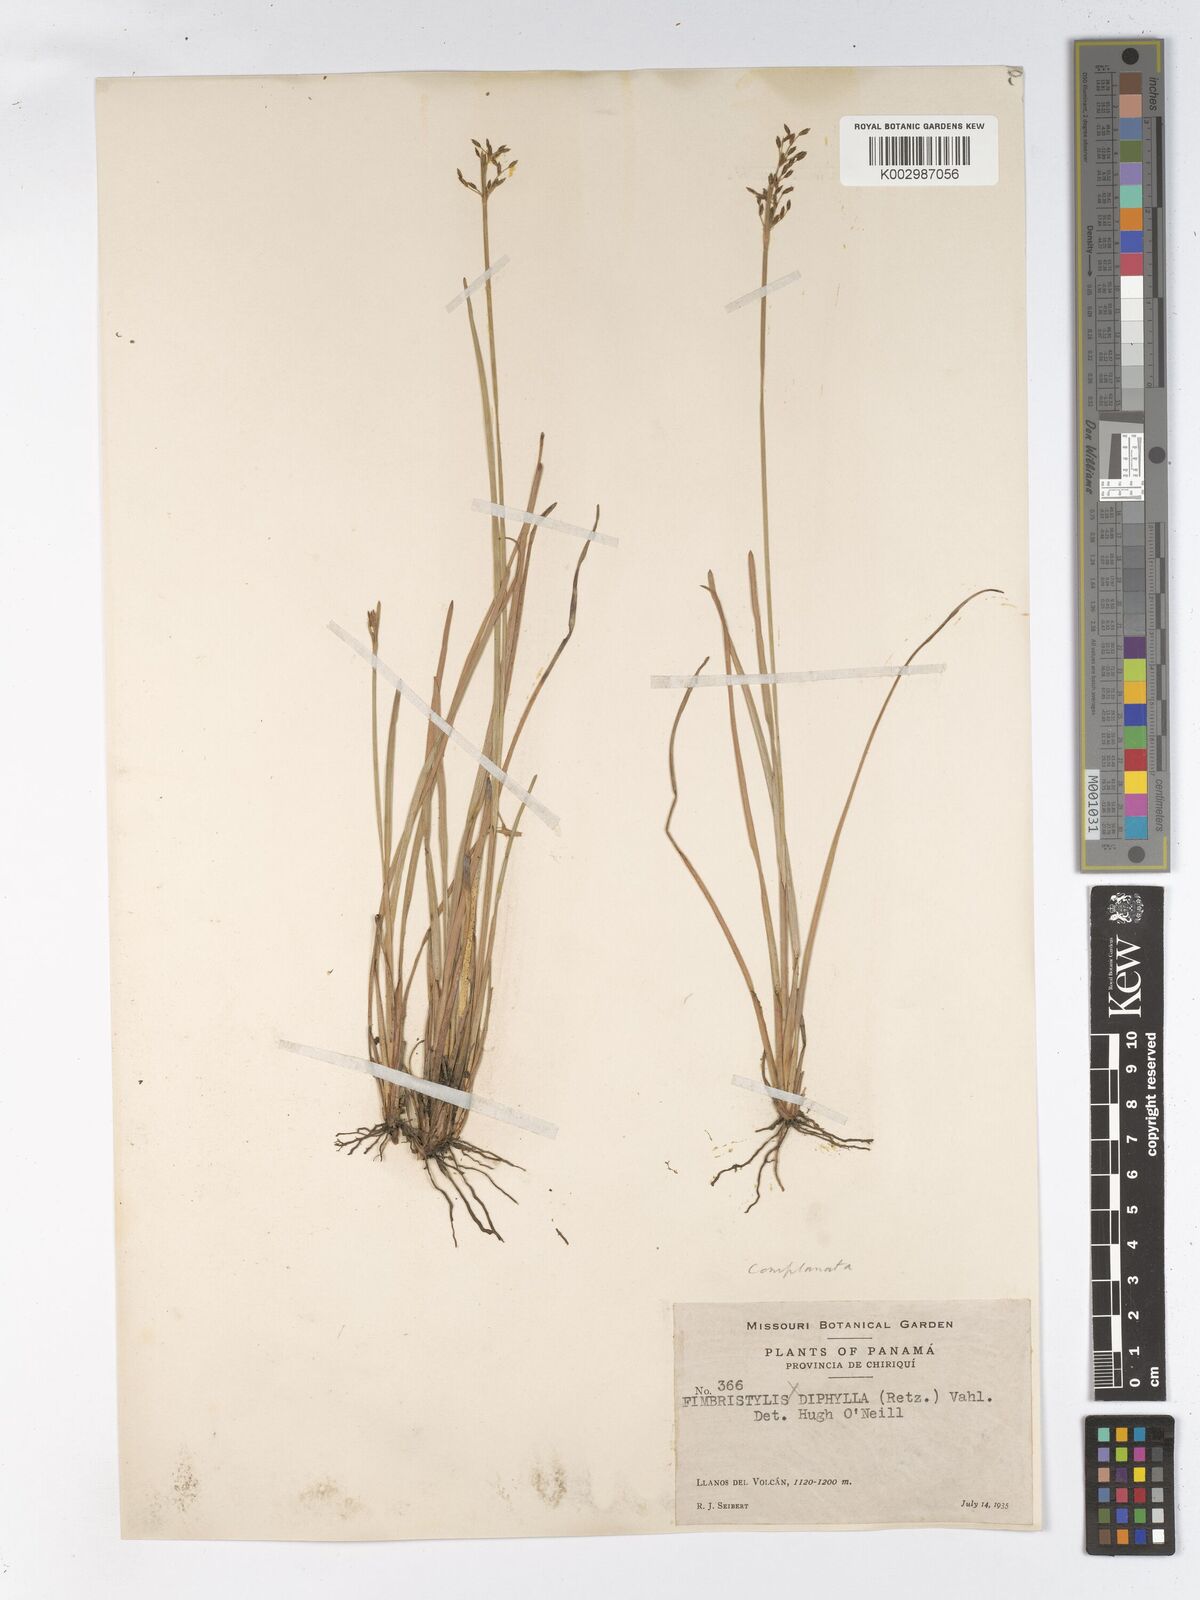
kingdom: Plantae
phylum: Tracheophyta
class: Liliopsida
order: Poales
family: Cyperaceae
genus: Fimbristylis
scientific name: Fimbristylis complanata
